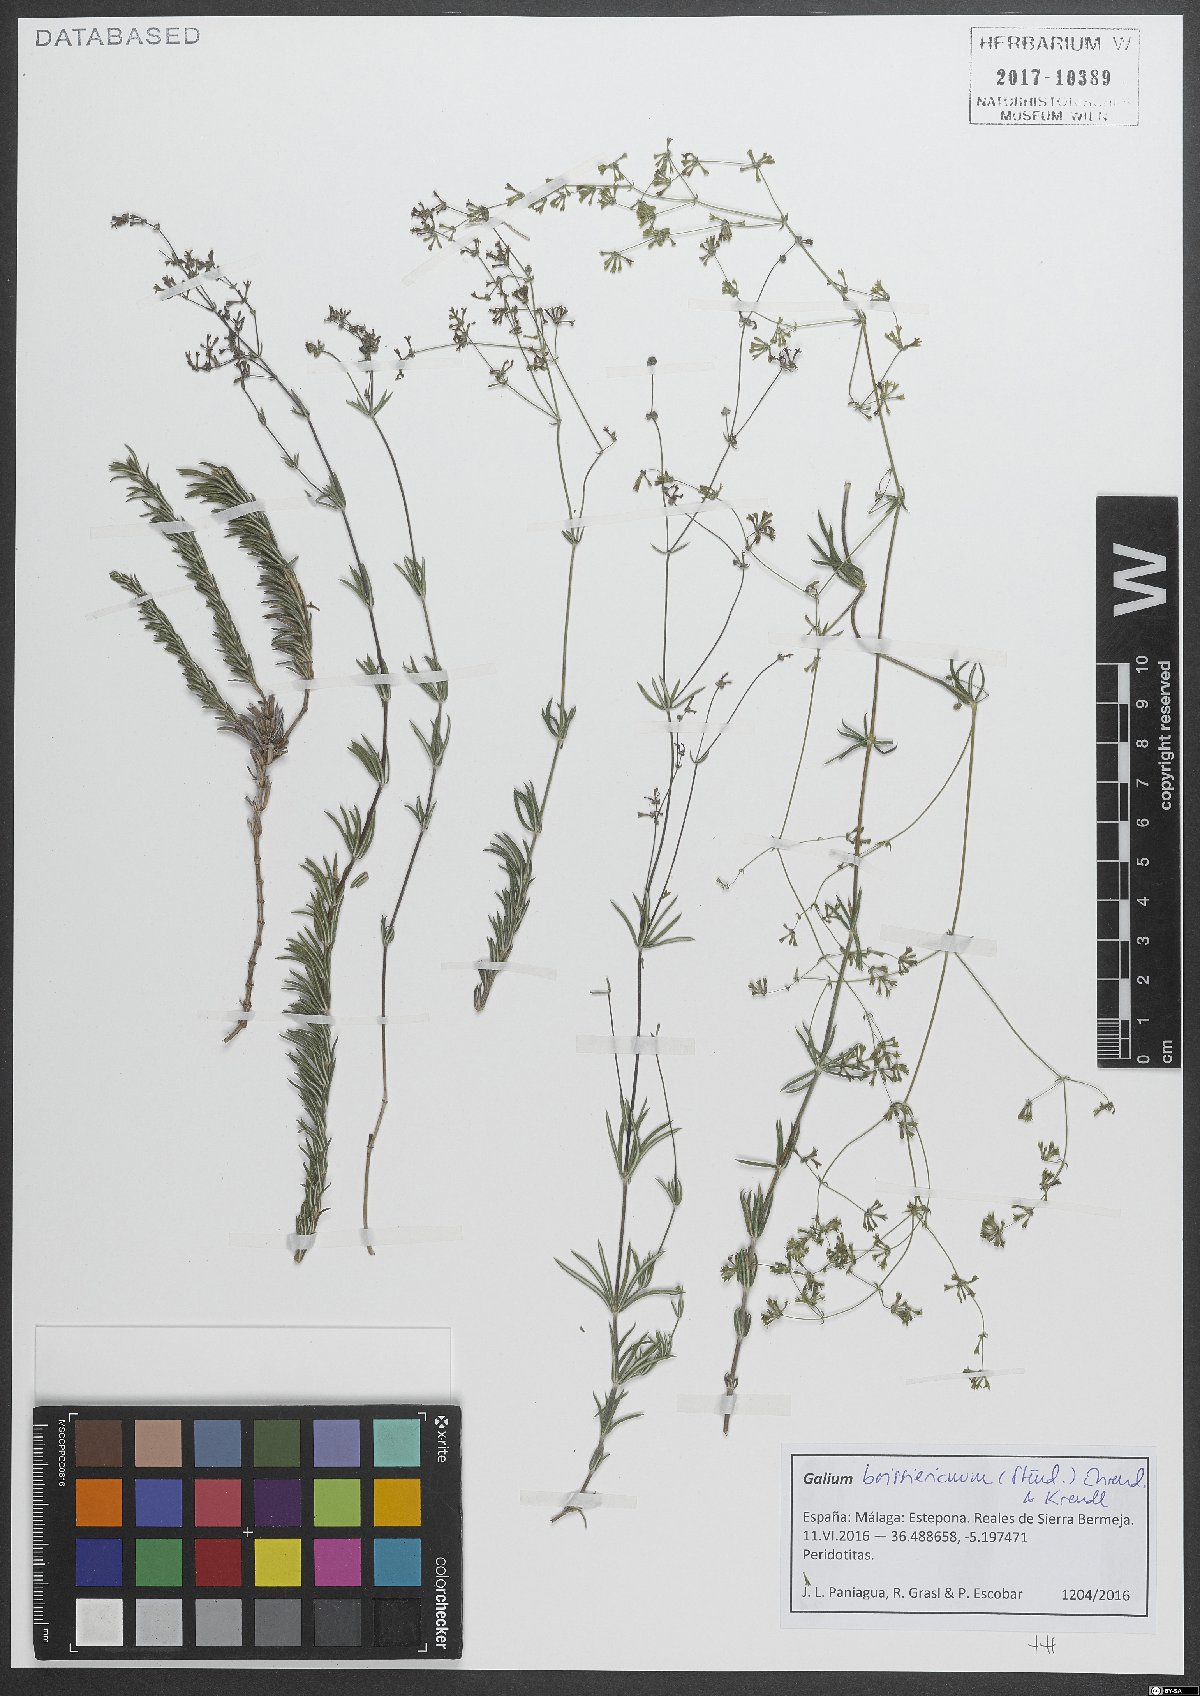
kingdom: Plantae
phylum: Tracheophyta
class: Magnoliopsida
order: Gentianales
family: Rubiaceae
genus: Galium
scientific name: Galium boissierianum
